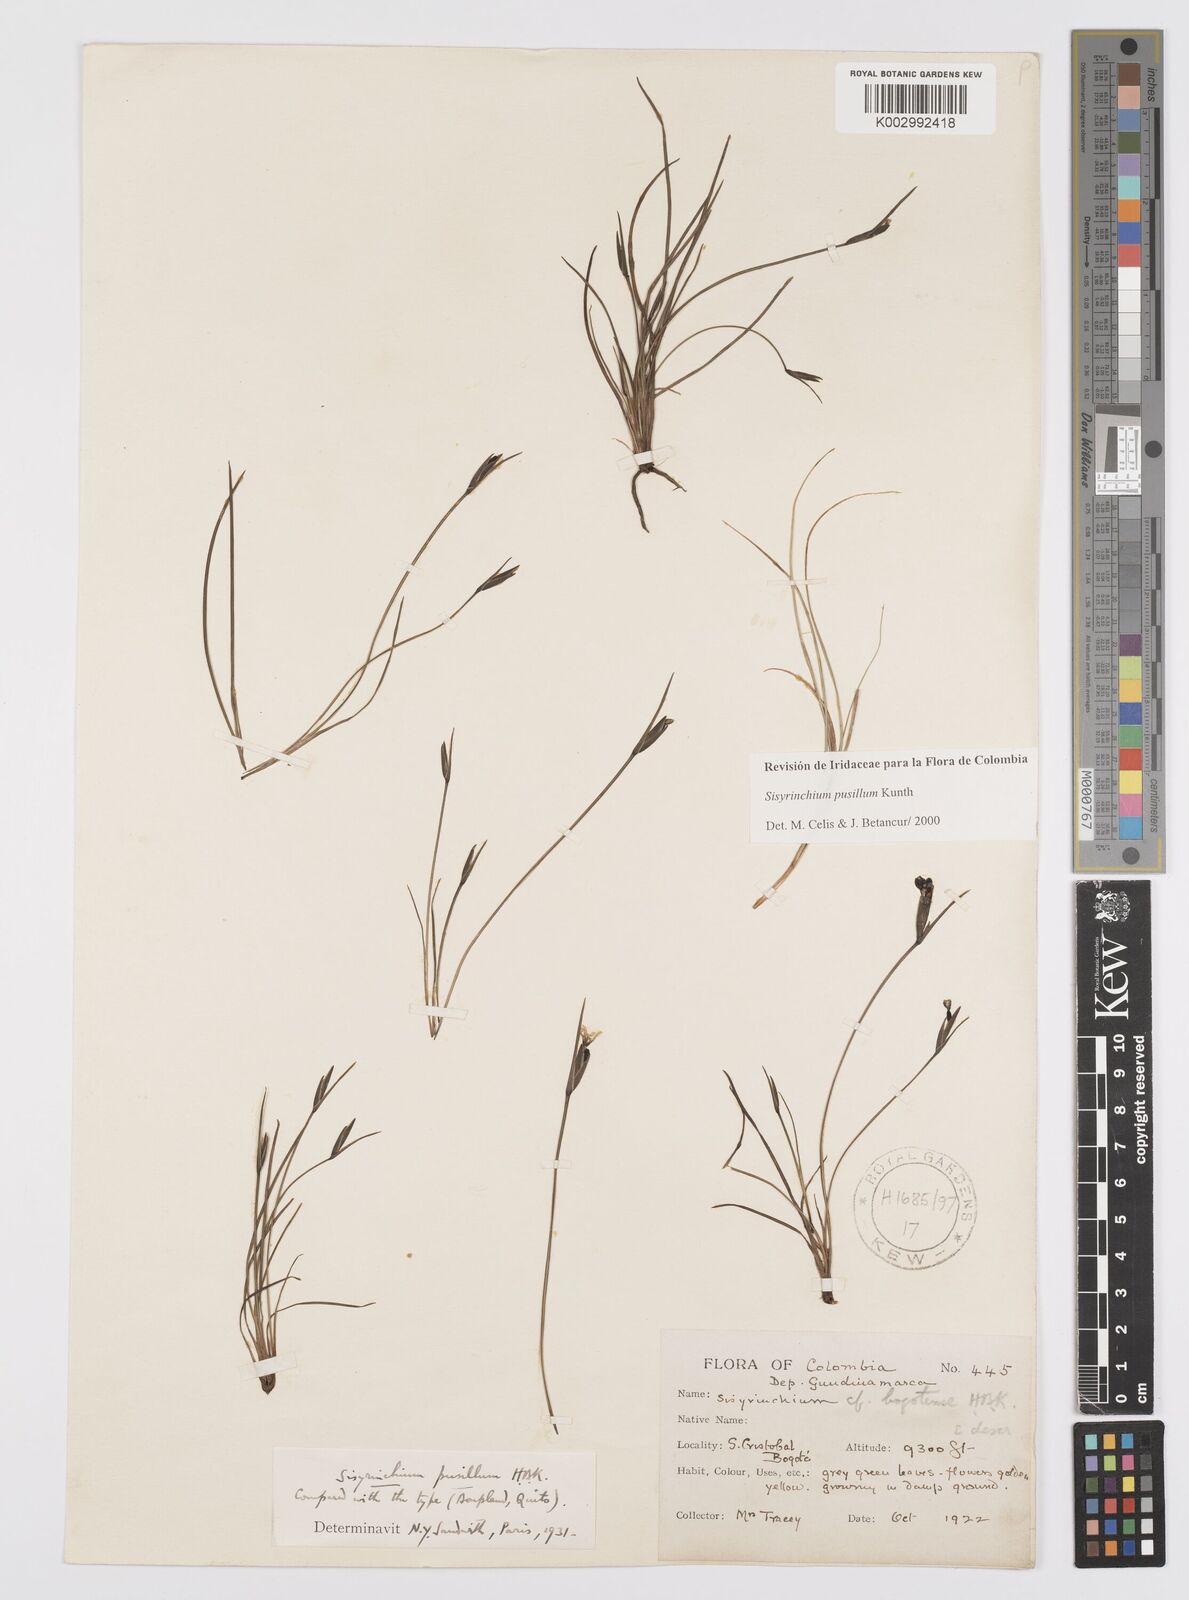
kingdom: Plantae
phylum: Tracheophyta
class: Liliopsida
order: Asparagales
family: Iridaceae
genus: Sisyrinchium
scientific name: Sisyrinchium pusillum
